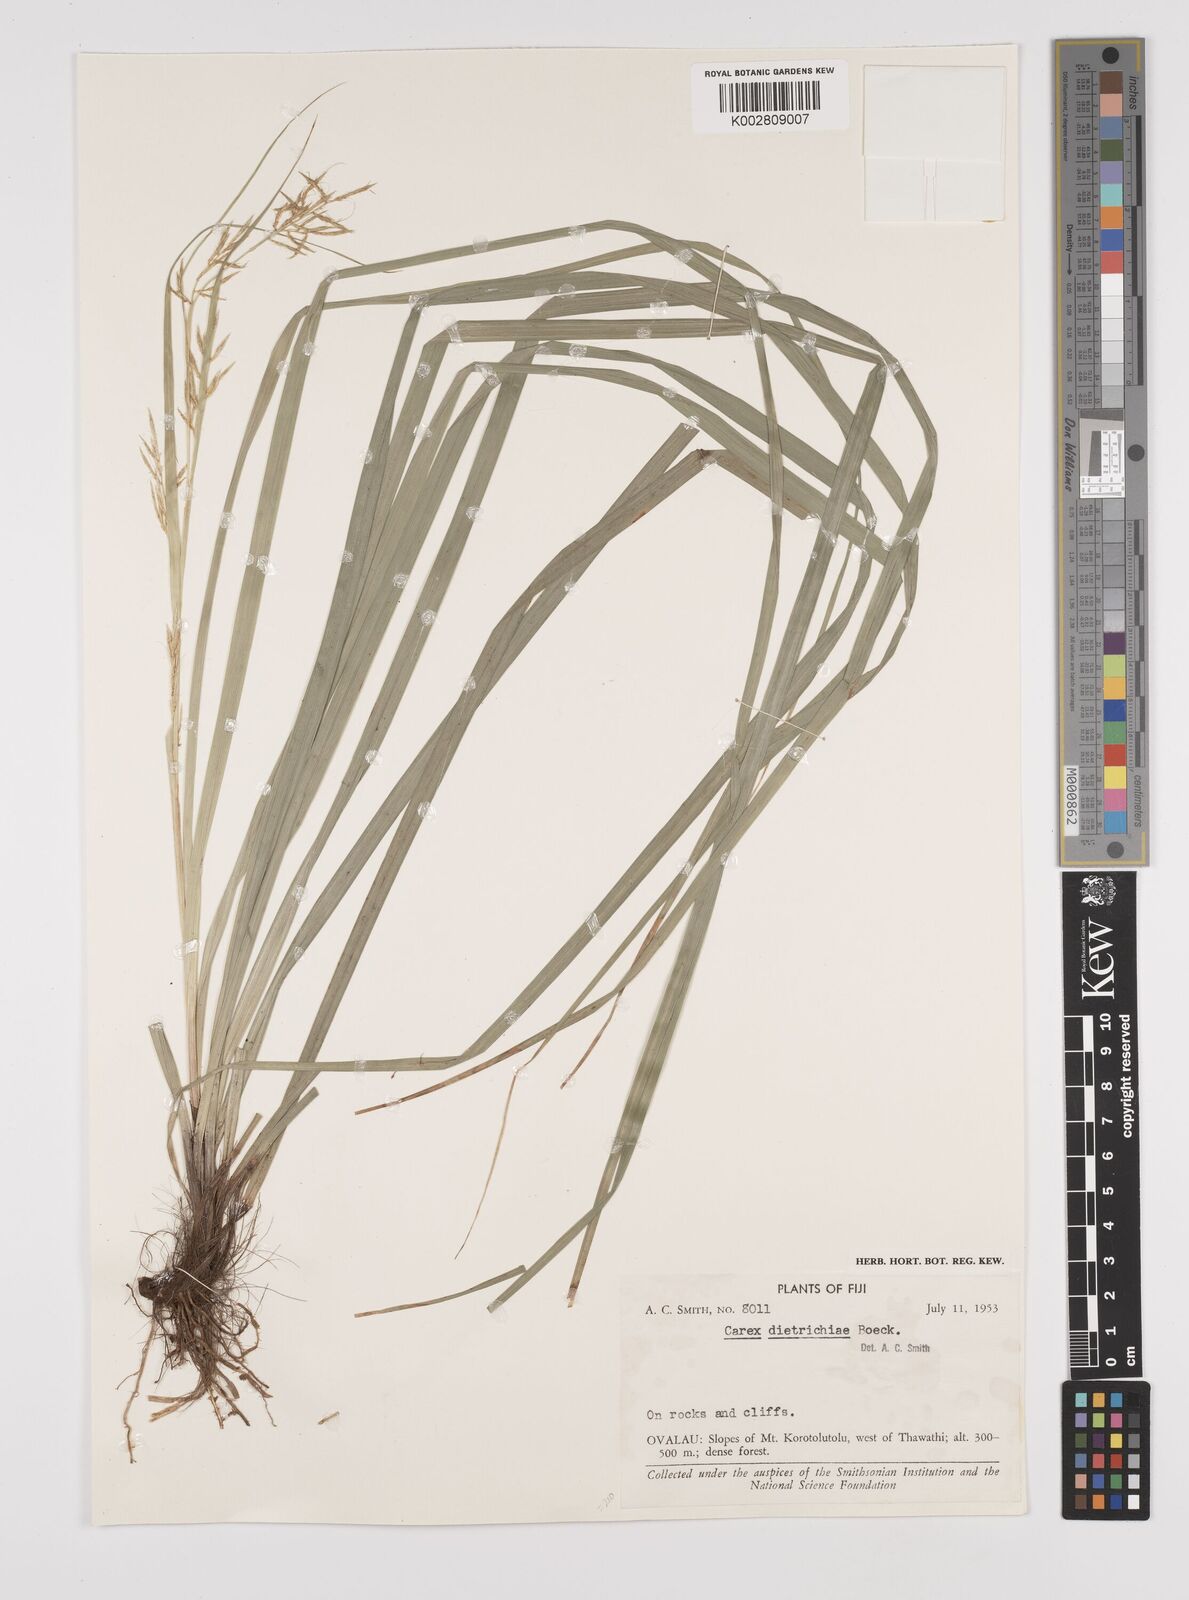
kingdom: Plantae
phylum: Tracheophyta
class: Liliopsida
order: Poales
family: Cyperaceae
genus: Carex
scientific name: Carex indica
